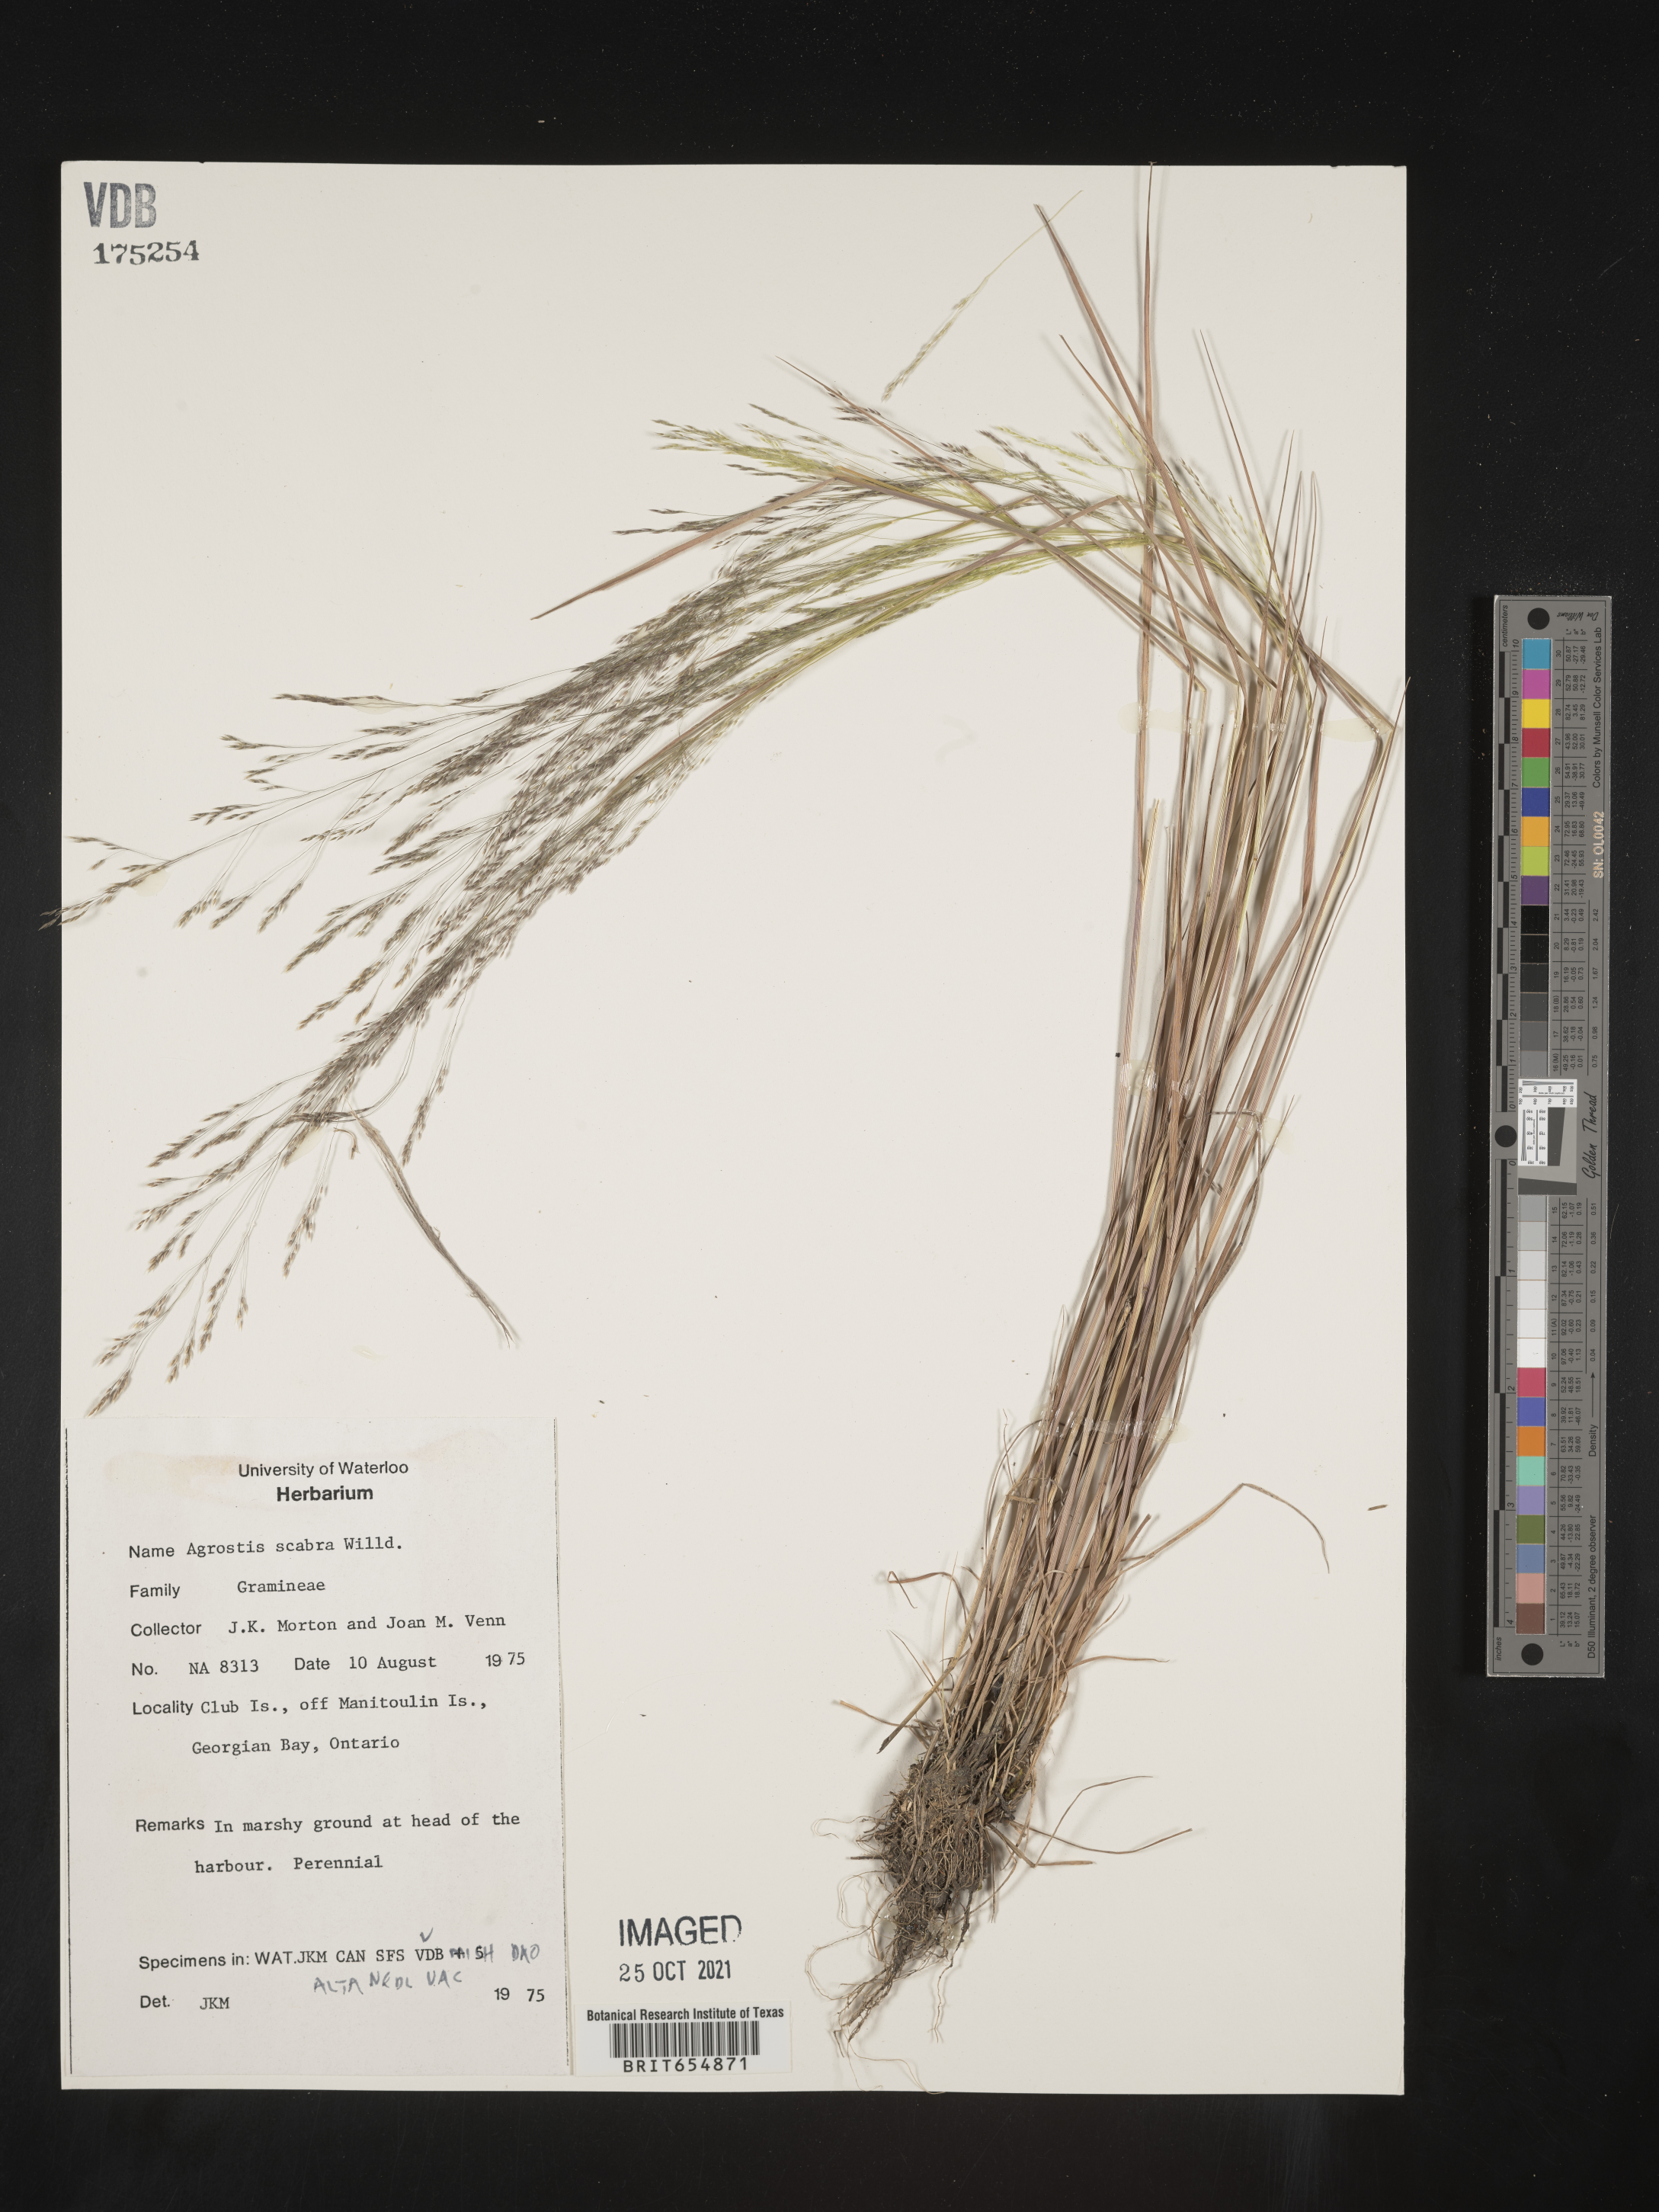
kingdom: Plantae
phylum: Tracheophyta
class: Liliopsida
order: Poales
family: Poaceae
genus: Agrostis
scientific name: Agrostis
